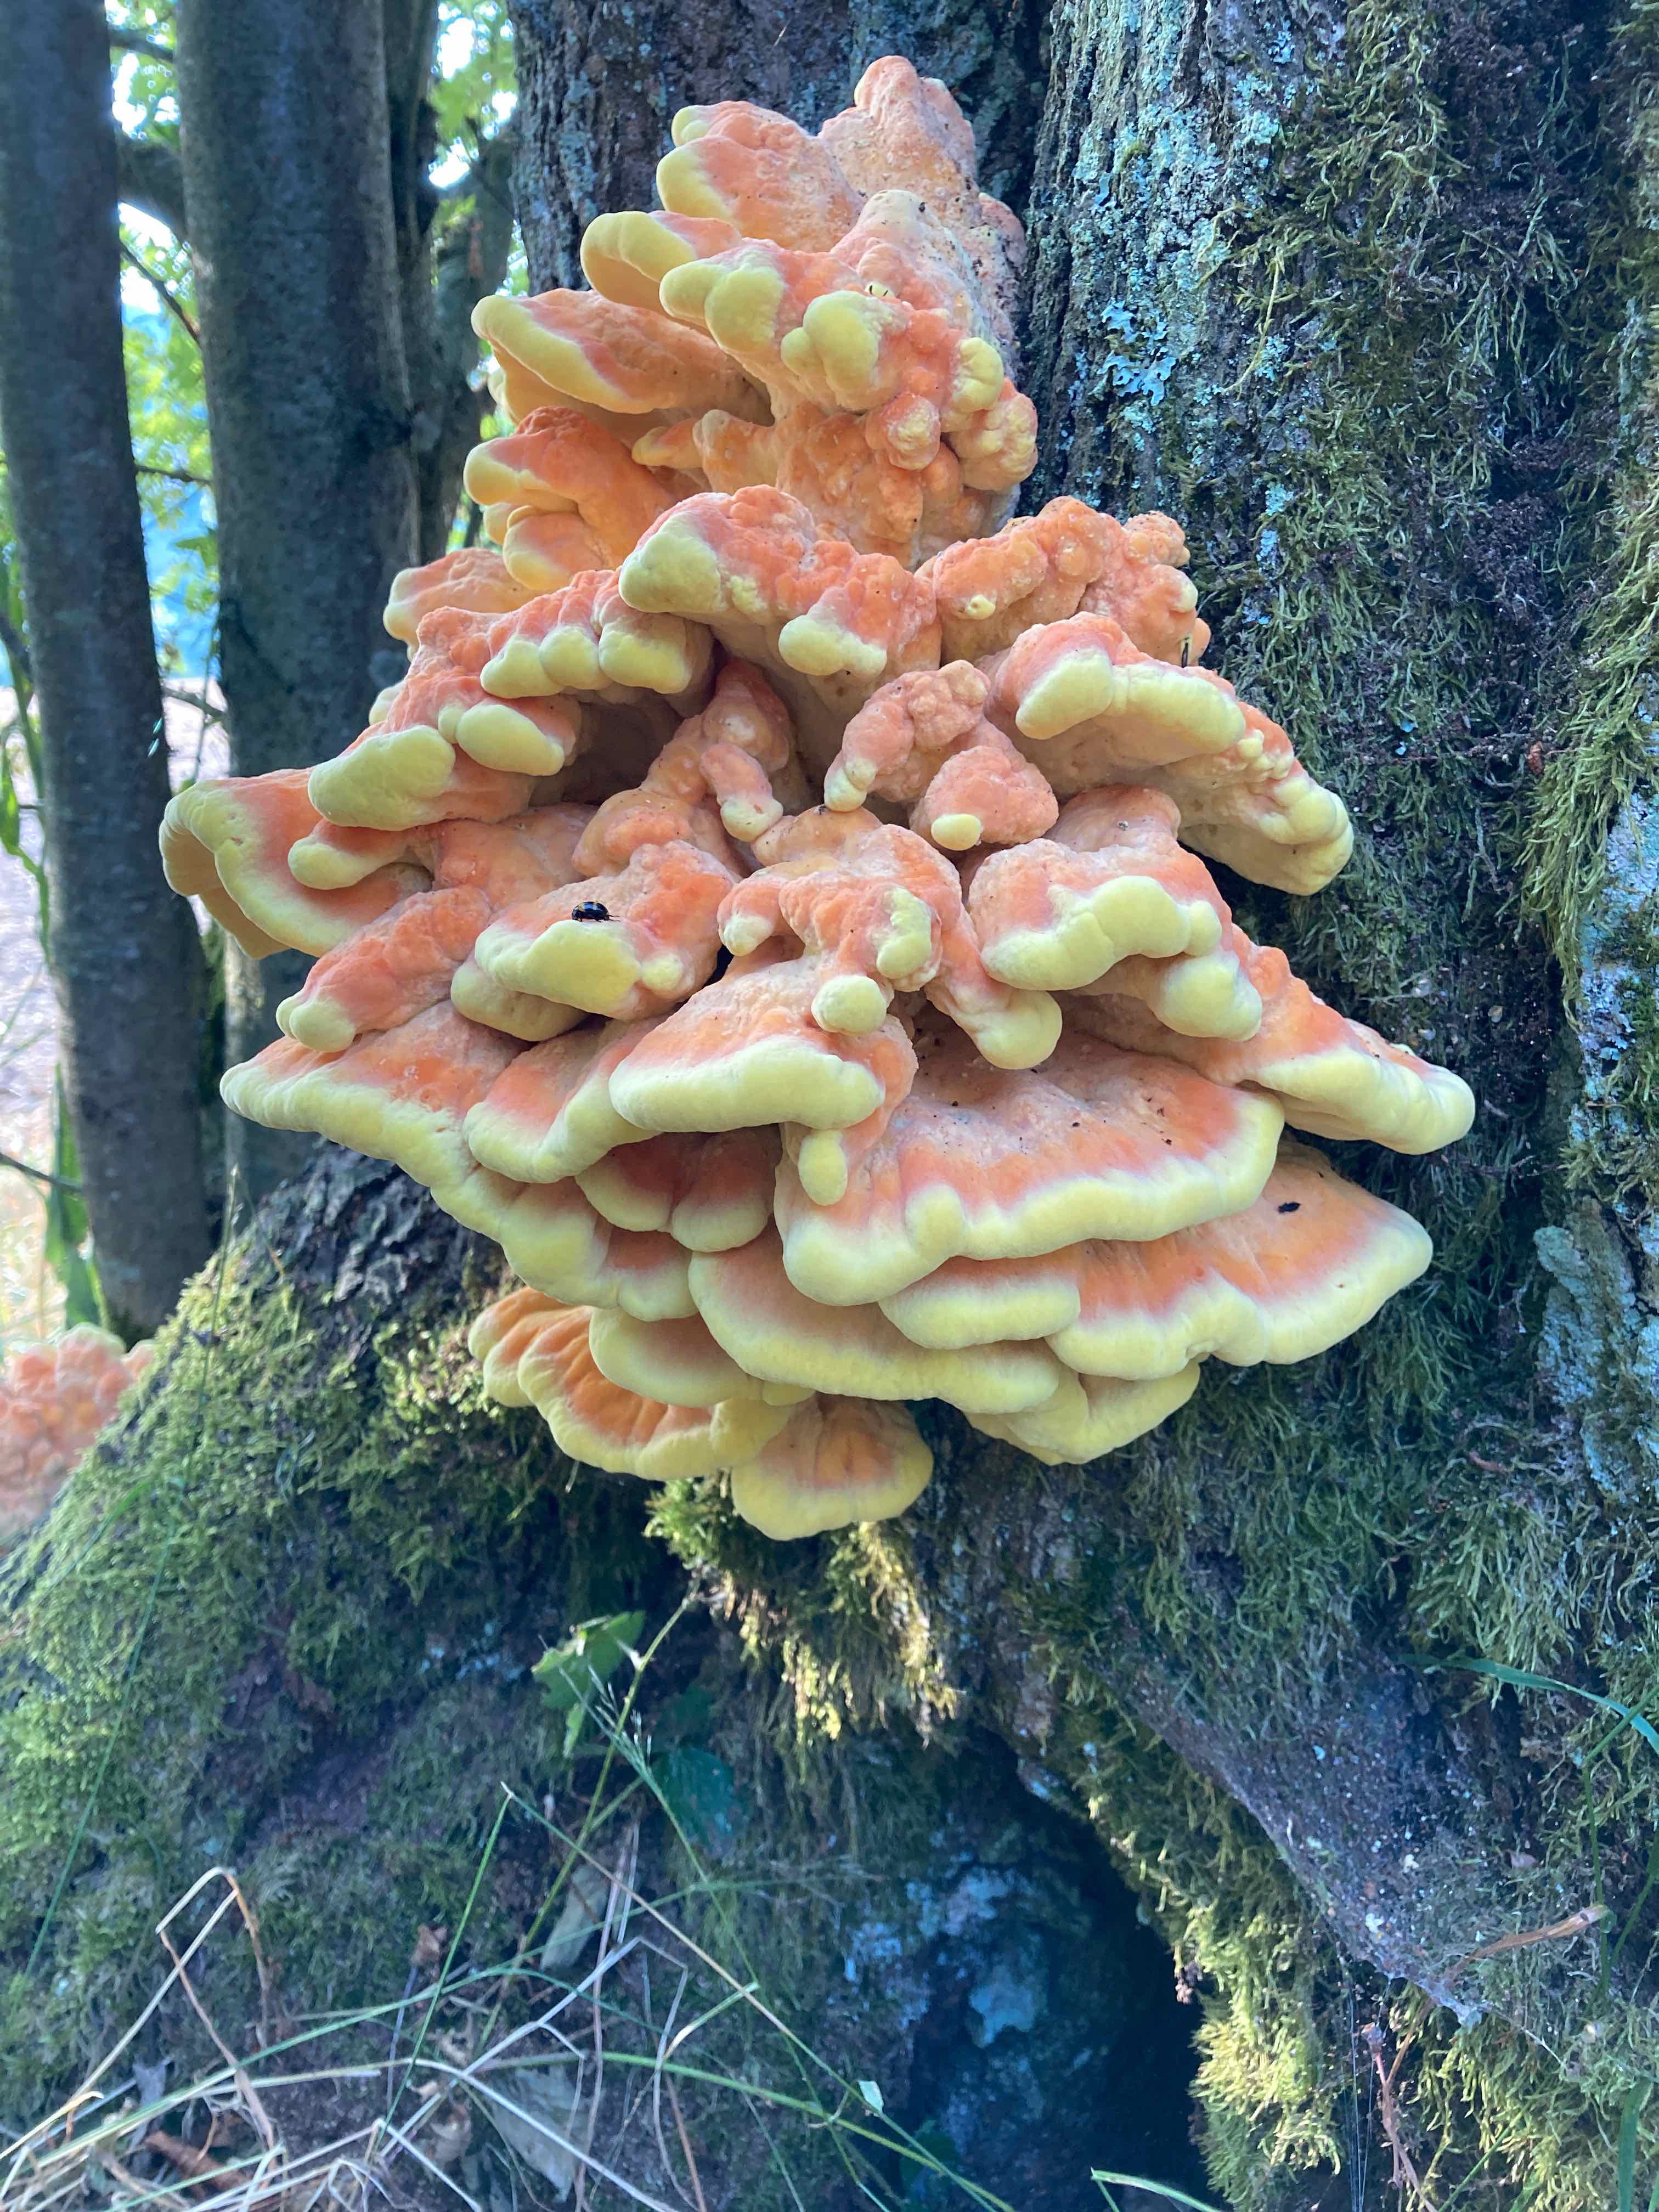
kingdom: Fungi
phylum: Basidiomycota
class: Agaricomycetes
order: Polyporales
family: Laetiporaceae
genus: Laetiporus
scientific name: Laetiporus sulphureus
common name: svovlporesvamp
